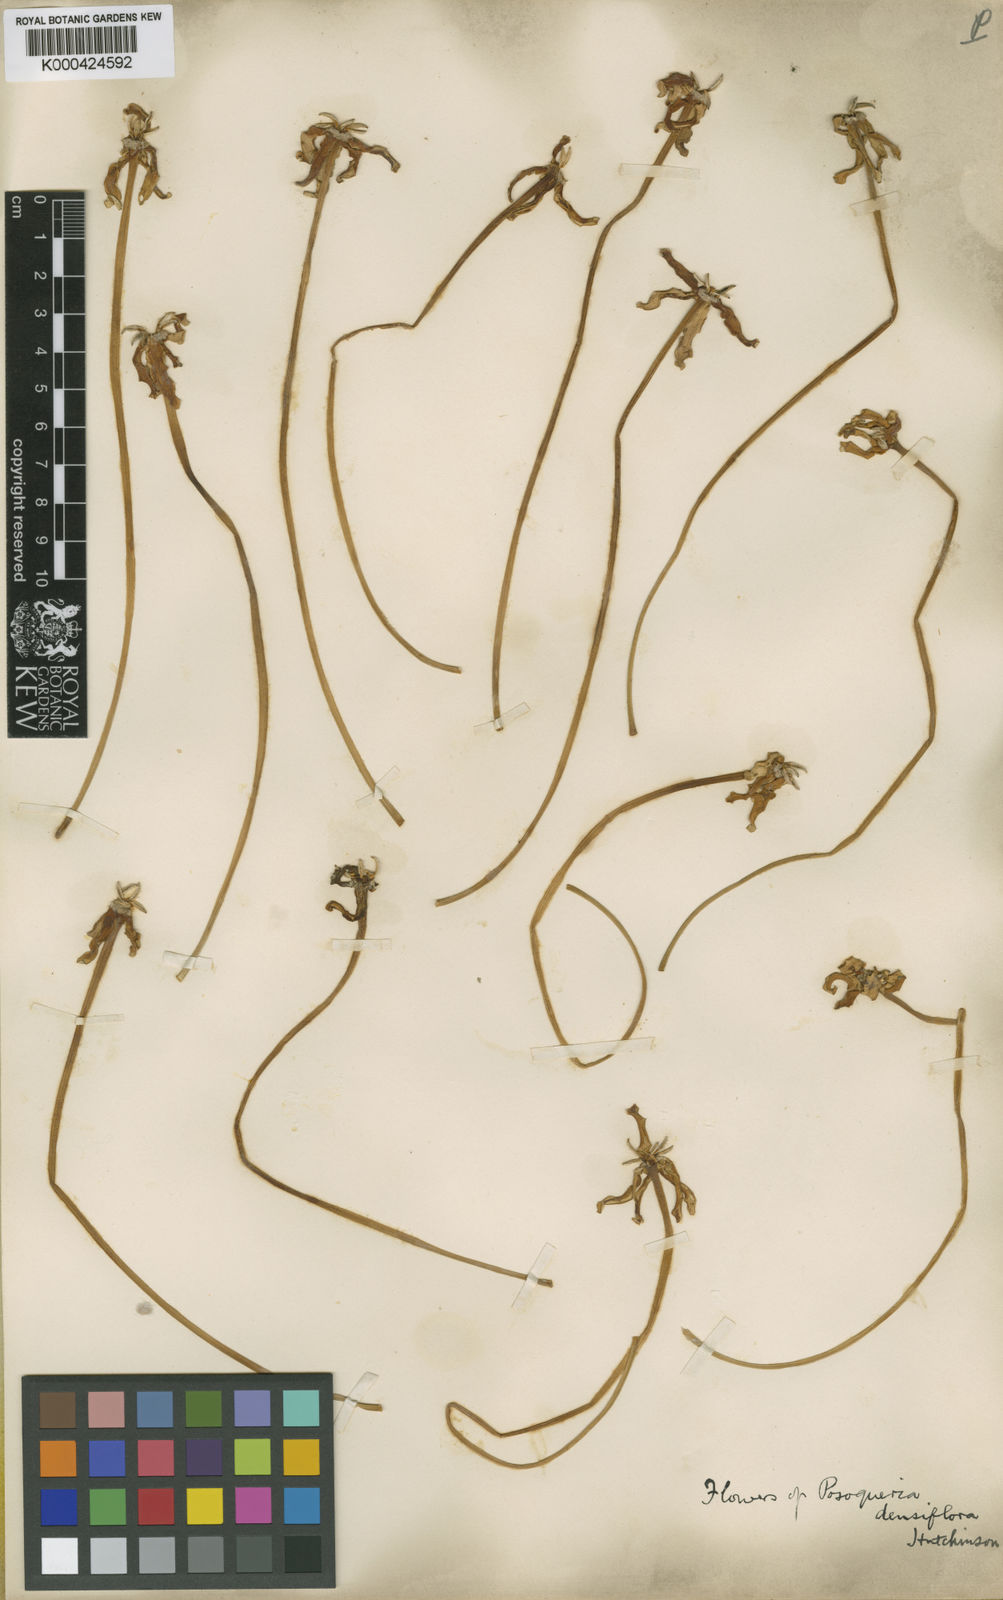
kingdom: Plantae
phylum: Tracheophyta
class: Magnoliopsida
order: Gentianales
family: Rubiaceae
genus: Benkara
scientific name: Benkara malabarica
